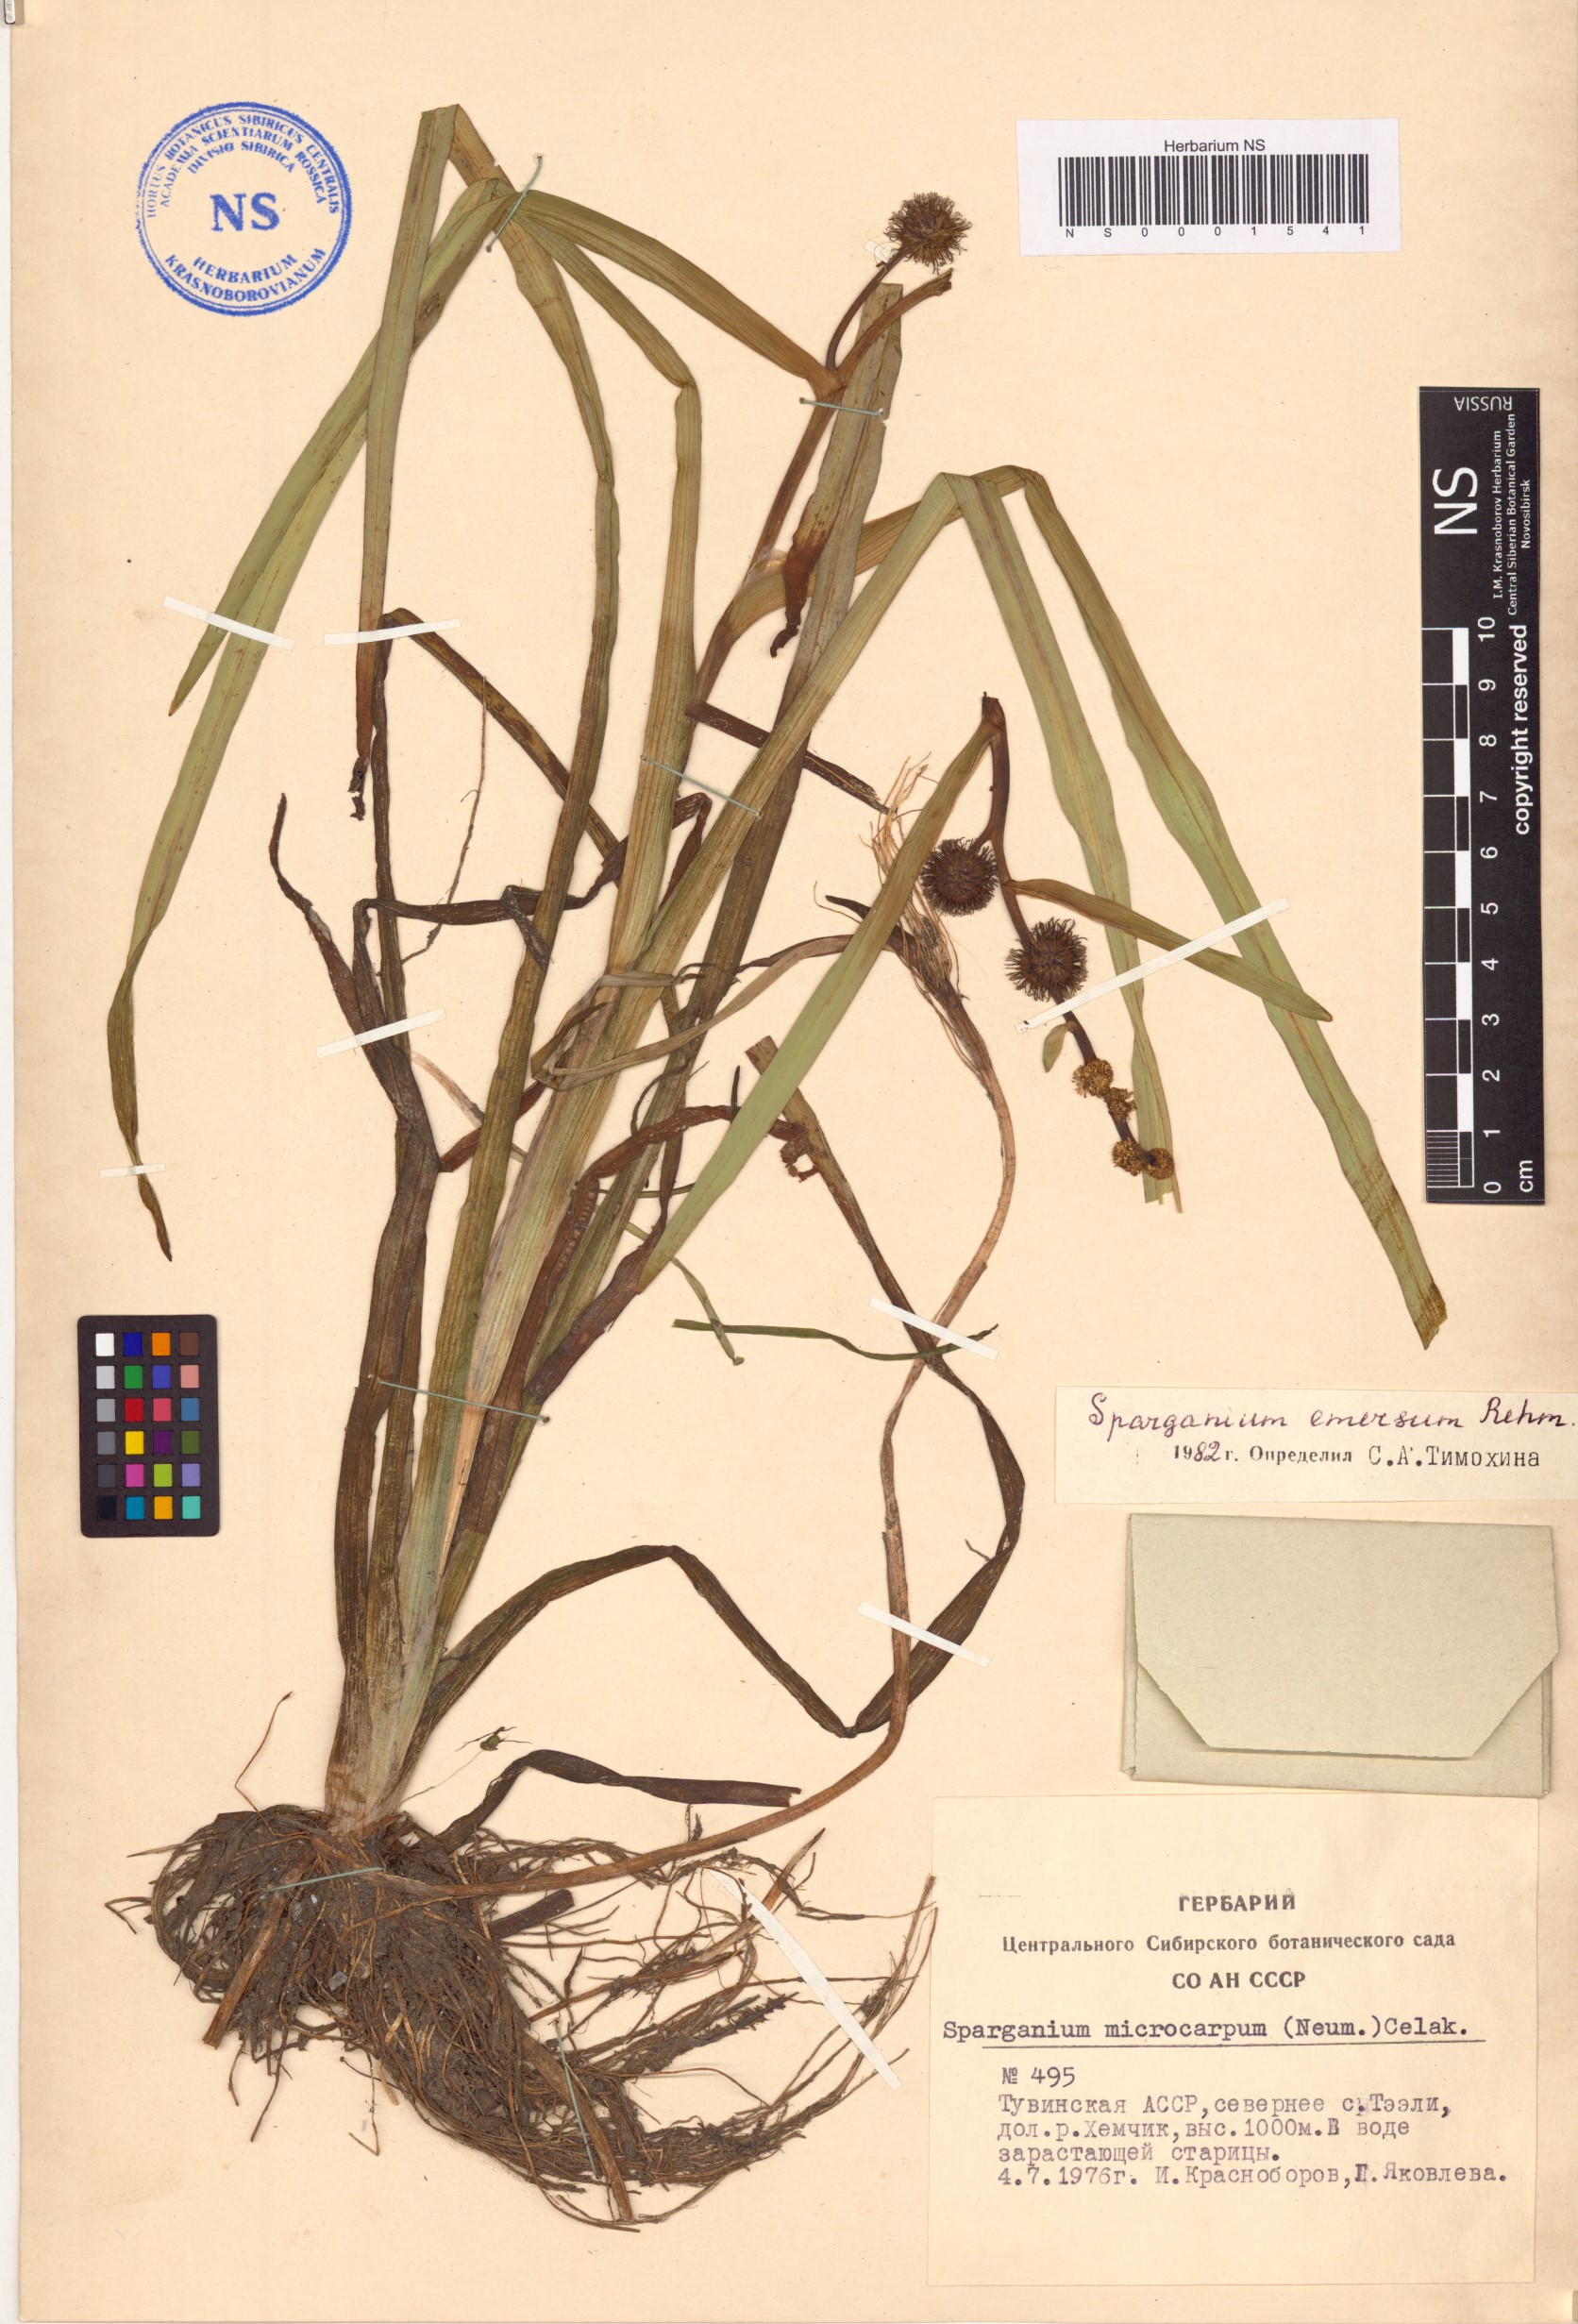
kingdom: Plantae
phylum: Tracheophyta
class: Liliopsida
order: Poales
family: Typhaceae
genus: Sparganium
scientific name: Sparganium emersum
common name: Unbranched bur-reed
